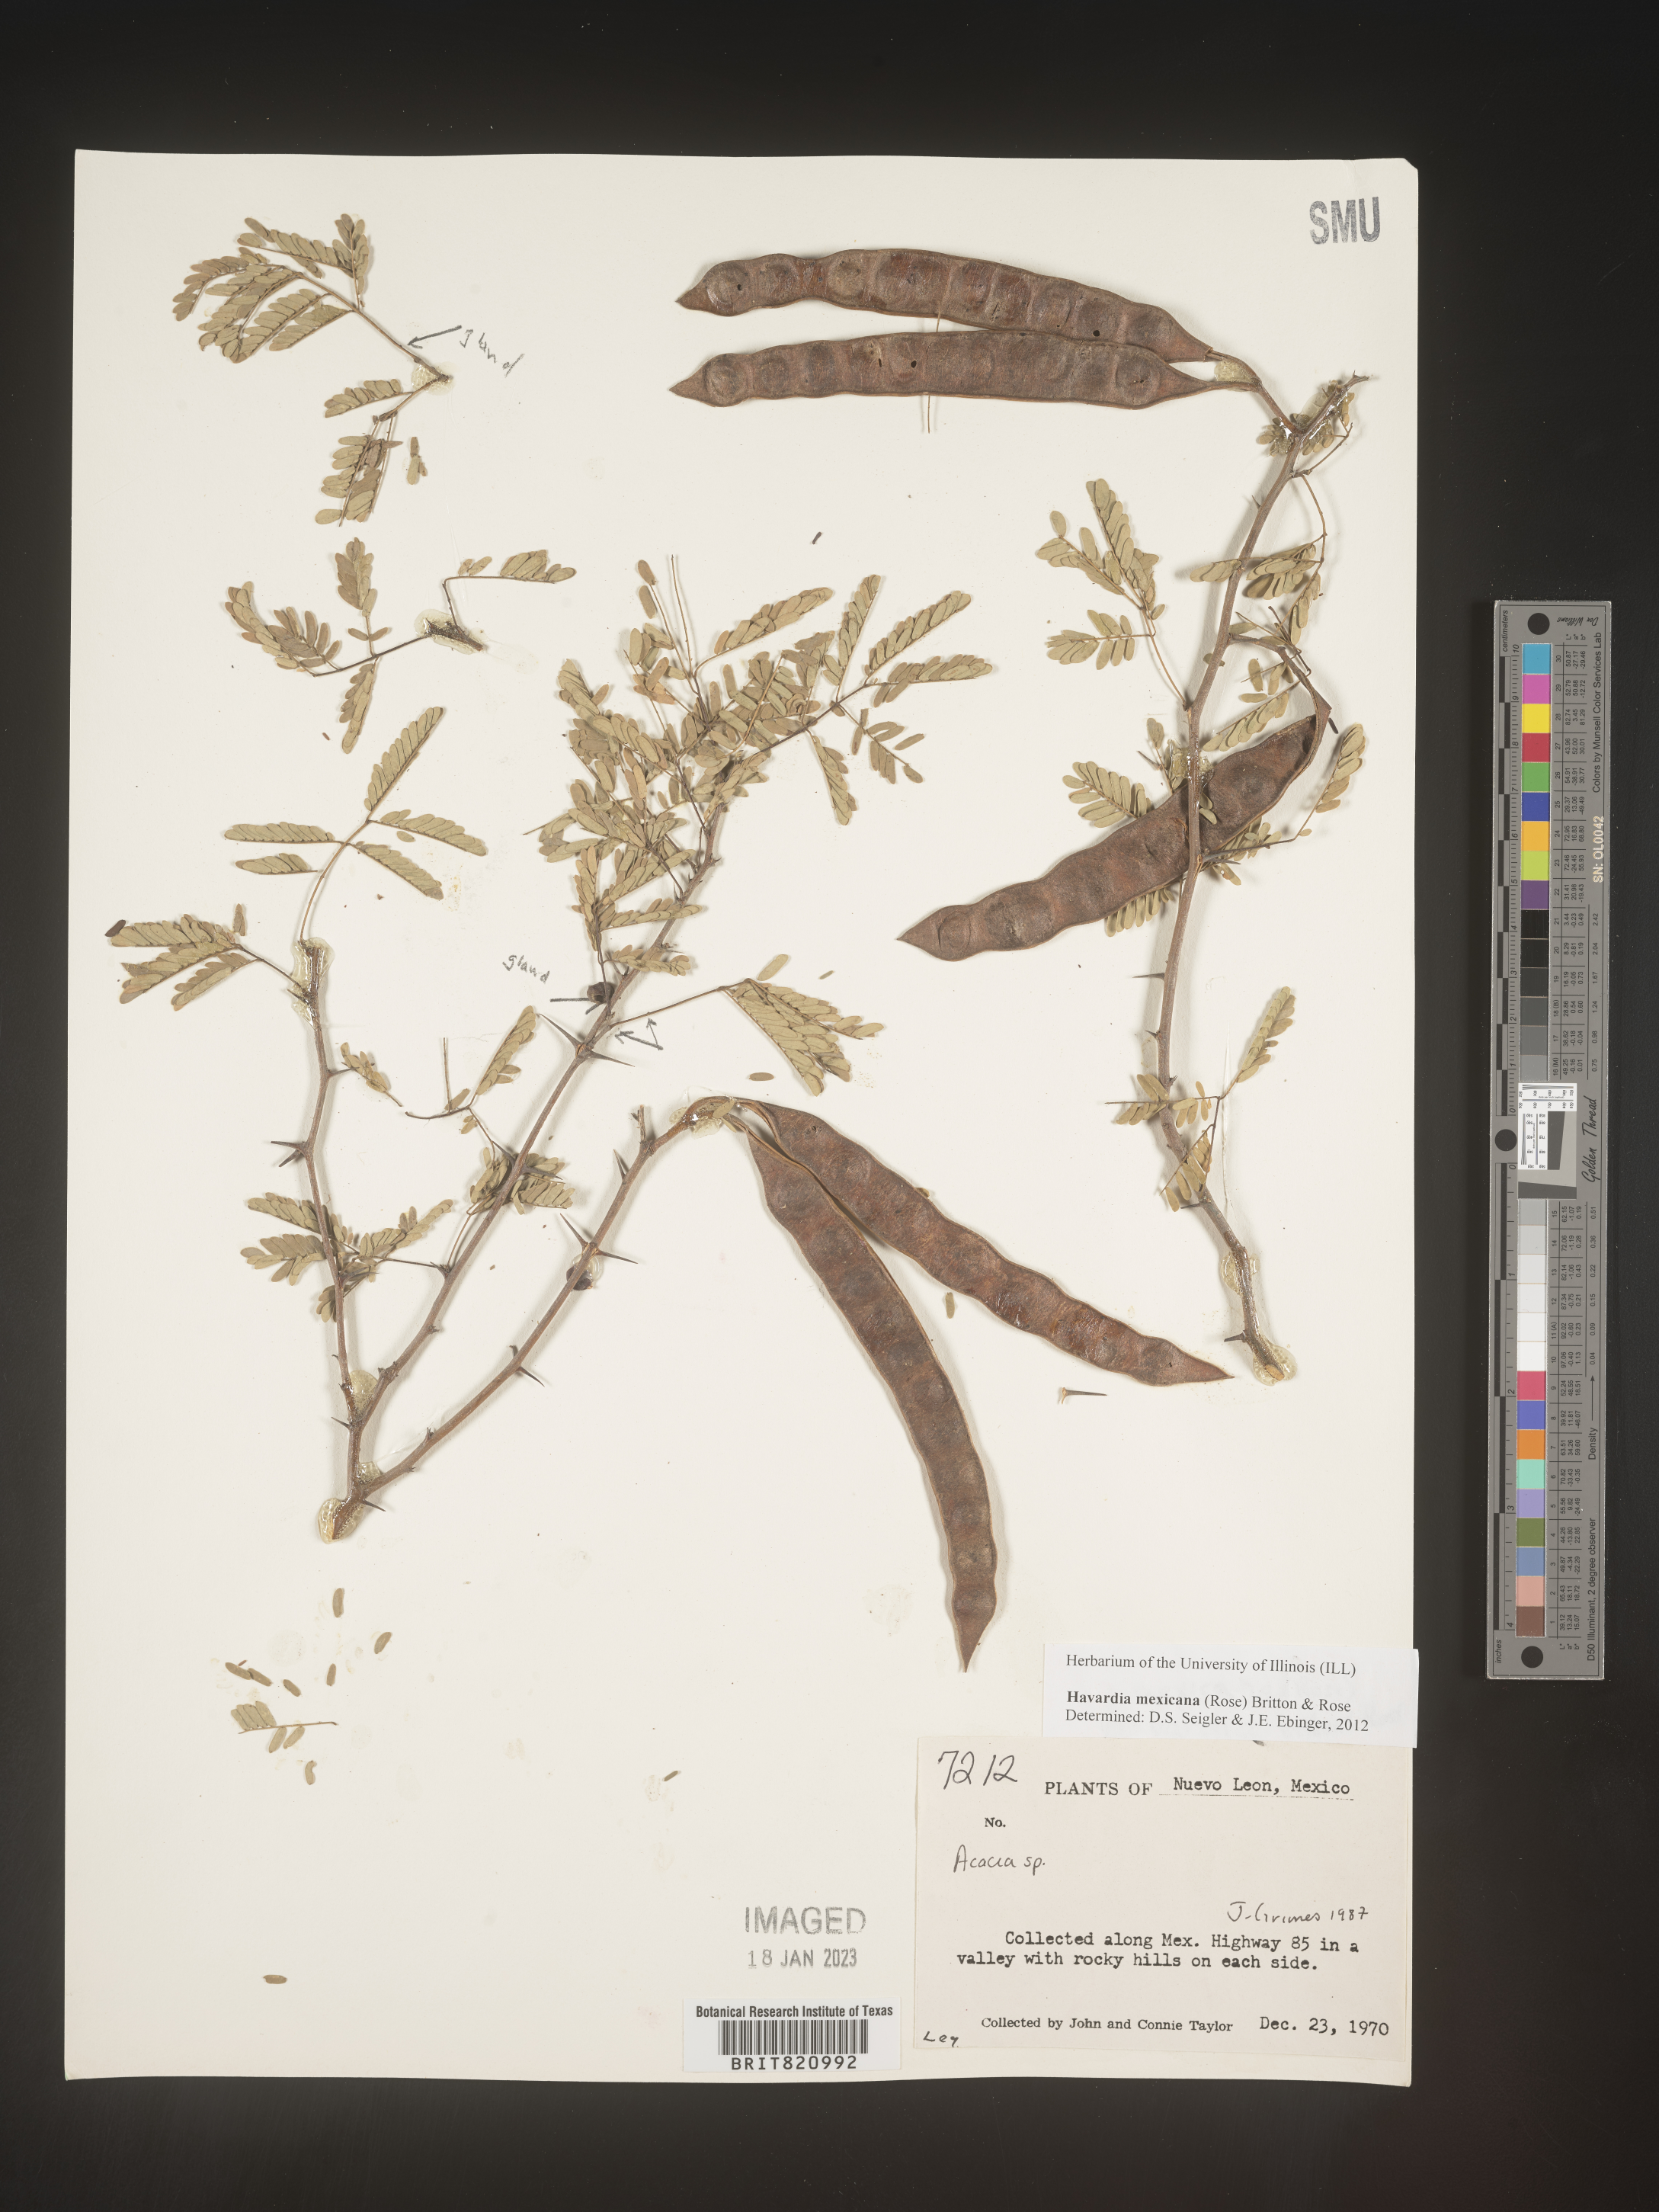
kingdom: Plantae
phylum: Tracheophyta
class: Magnoliopsida
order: Fabales
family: Fabaceae
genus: Havardia
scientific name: Havardia
